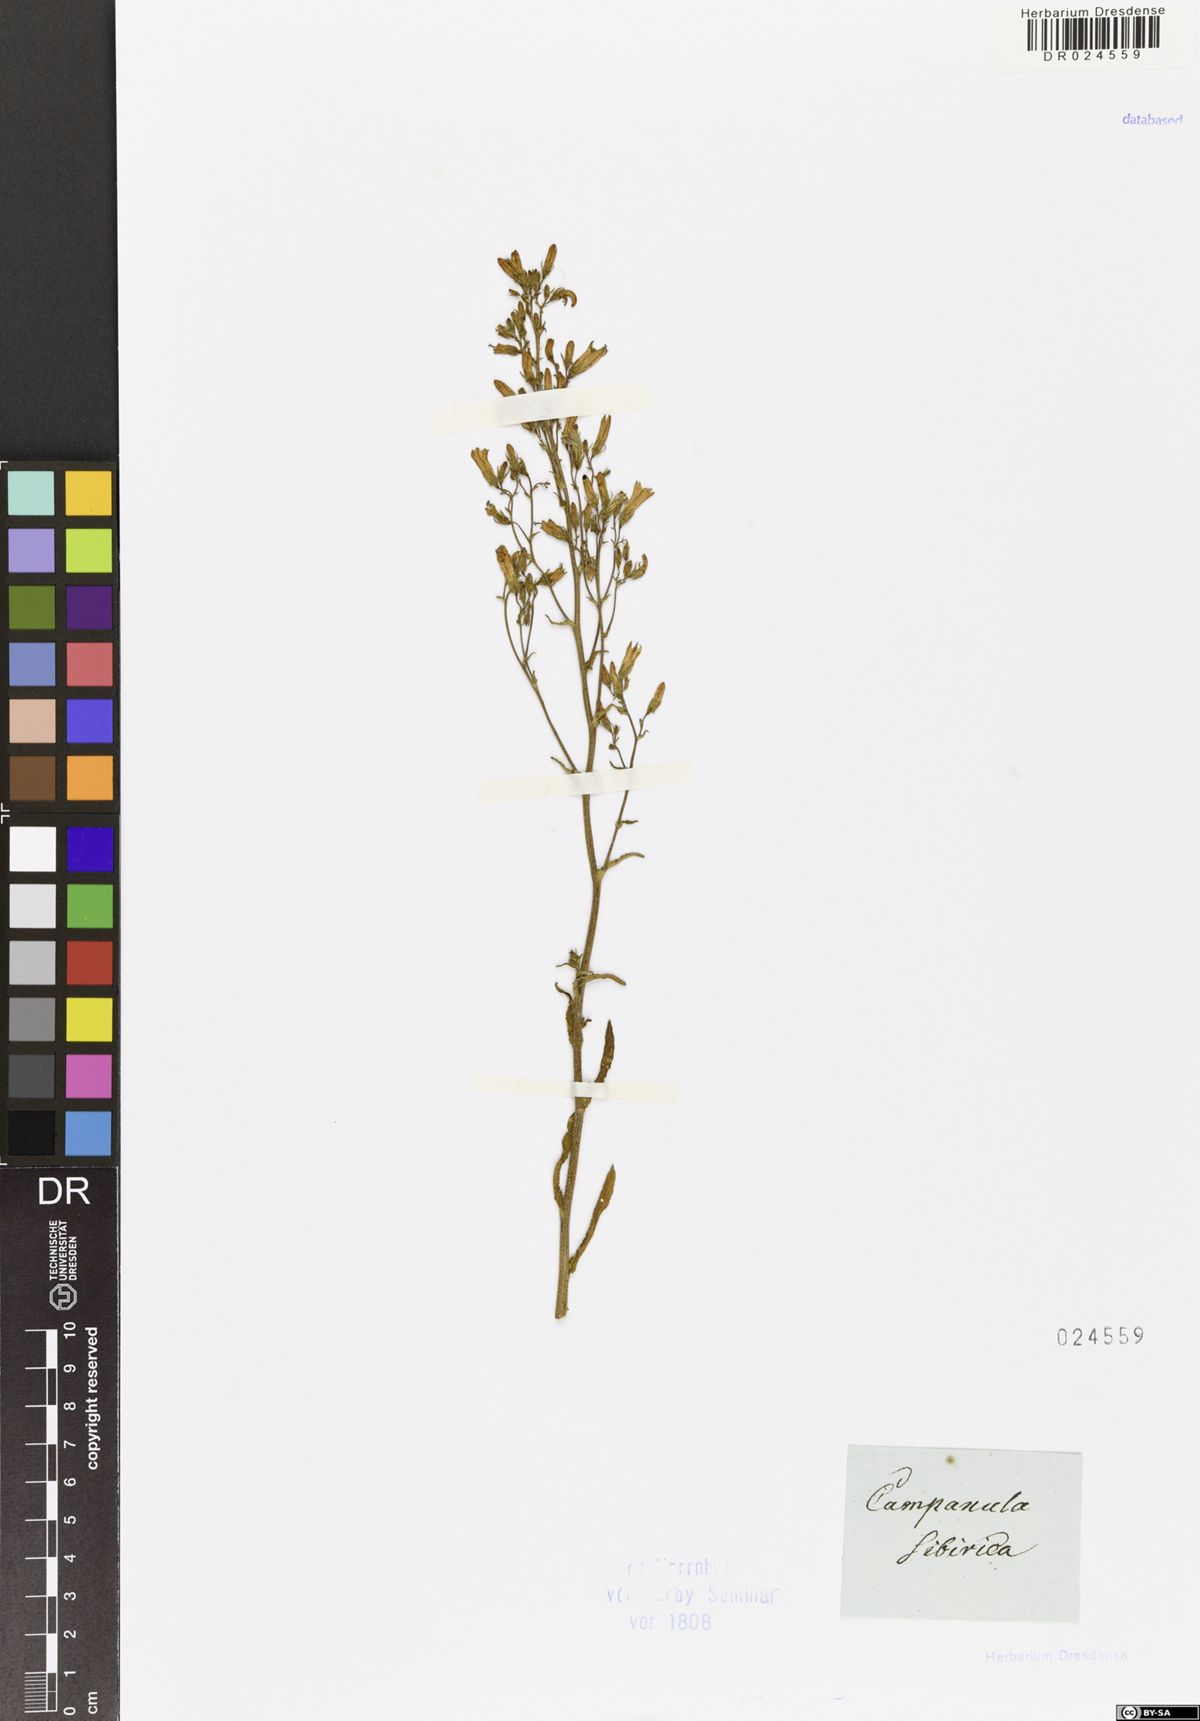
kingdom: Plantae
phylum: Tracheophyta
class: Magnoliopsida
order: Asterales
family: Campanulaceae
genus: Campanula
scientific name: Campanula sibirica
